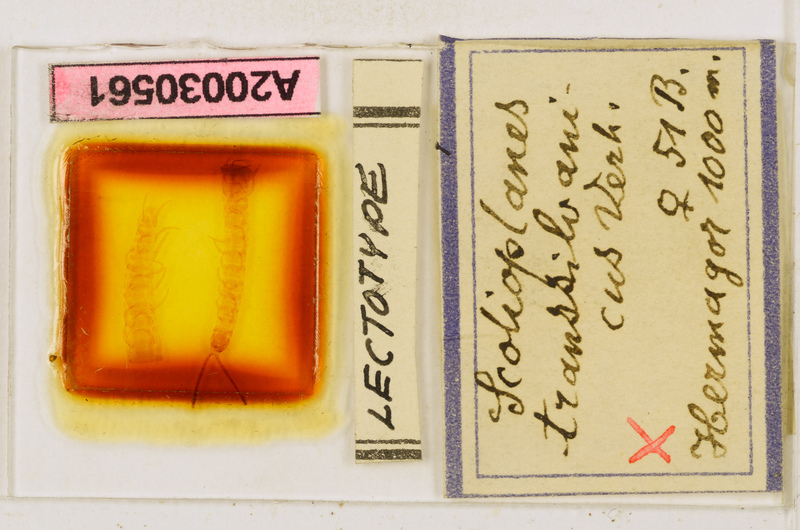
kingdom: Animalia
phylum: Arthropoda
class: Chilopoda
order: Geophilomorpha
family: Linotaeniidae
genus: Strigamia
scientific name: Strigamia transsilvanica
